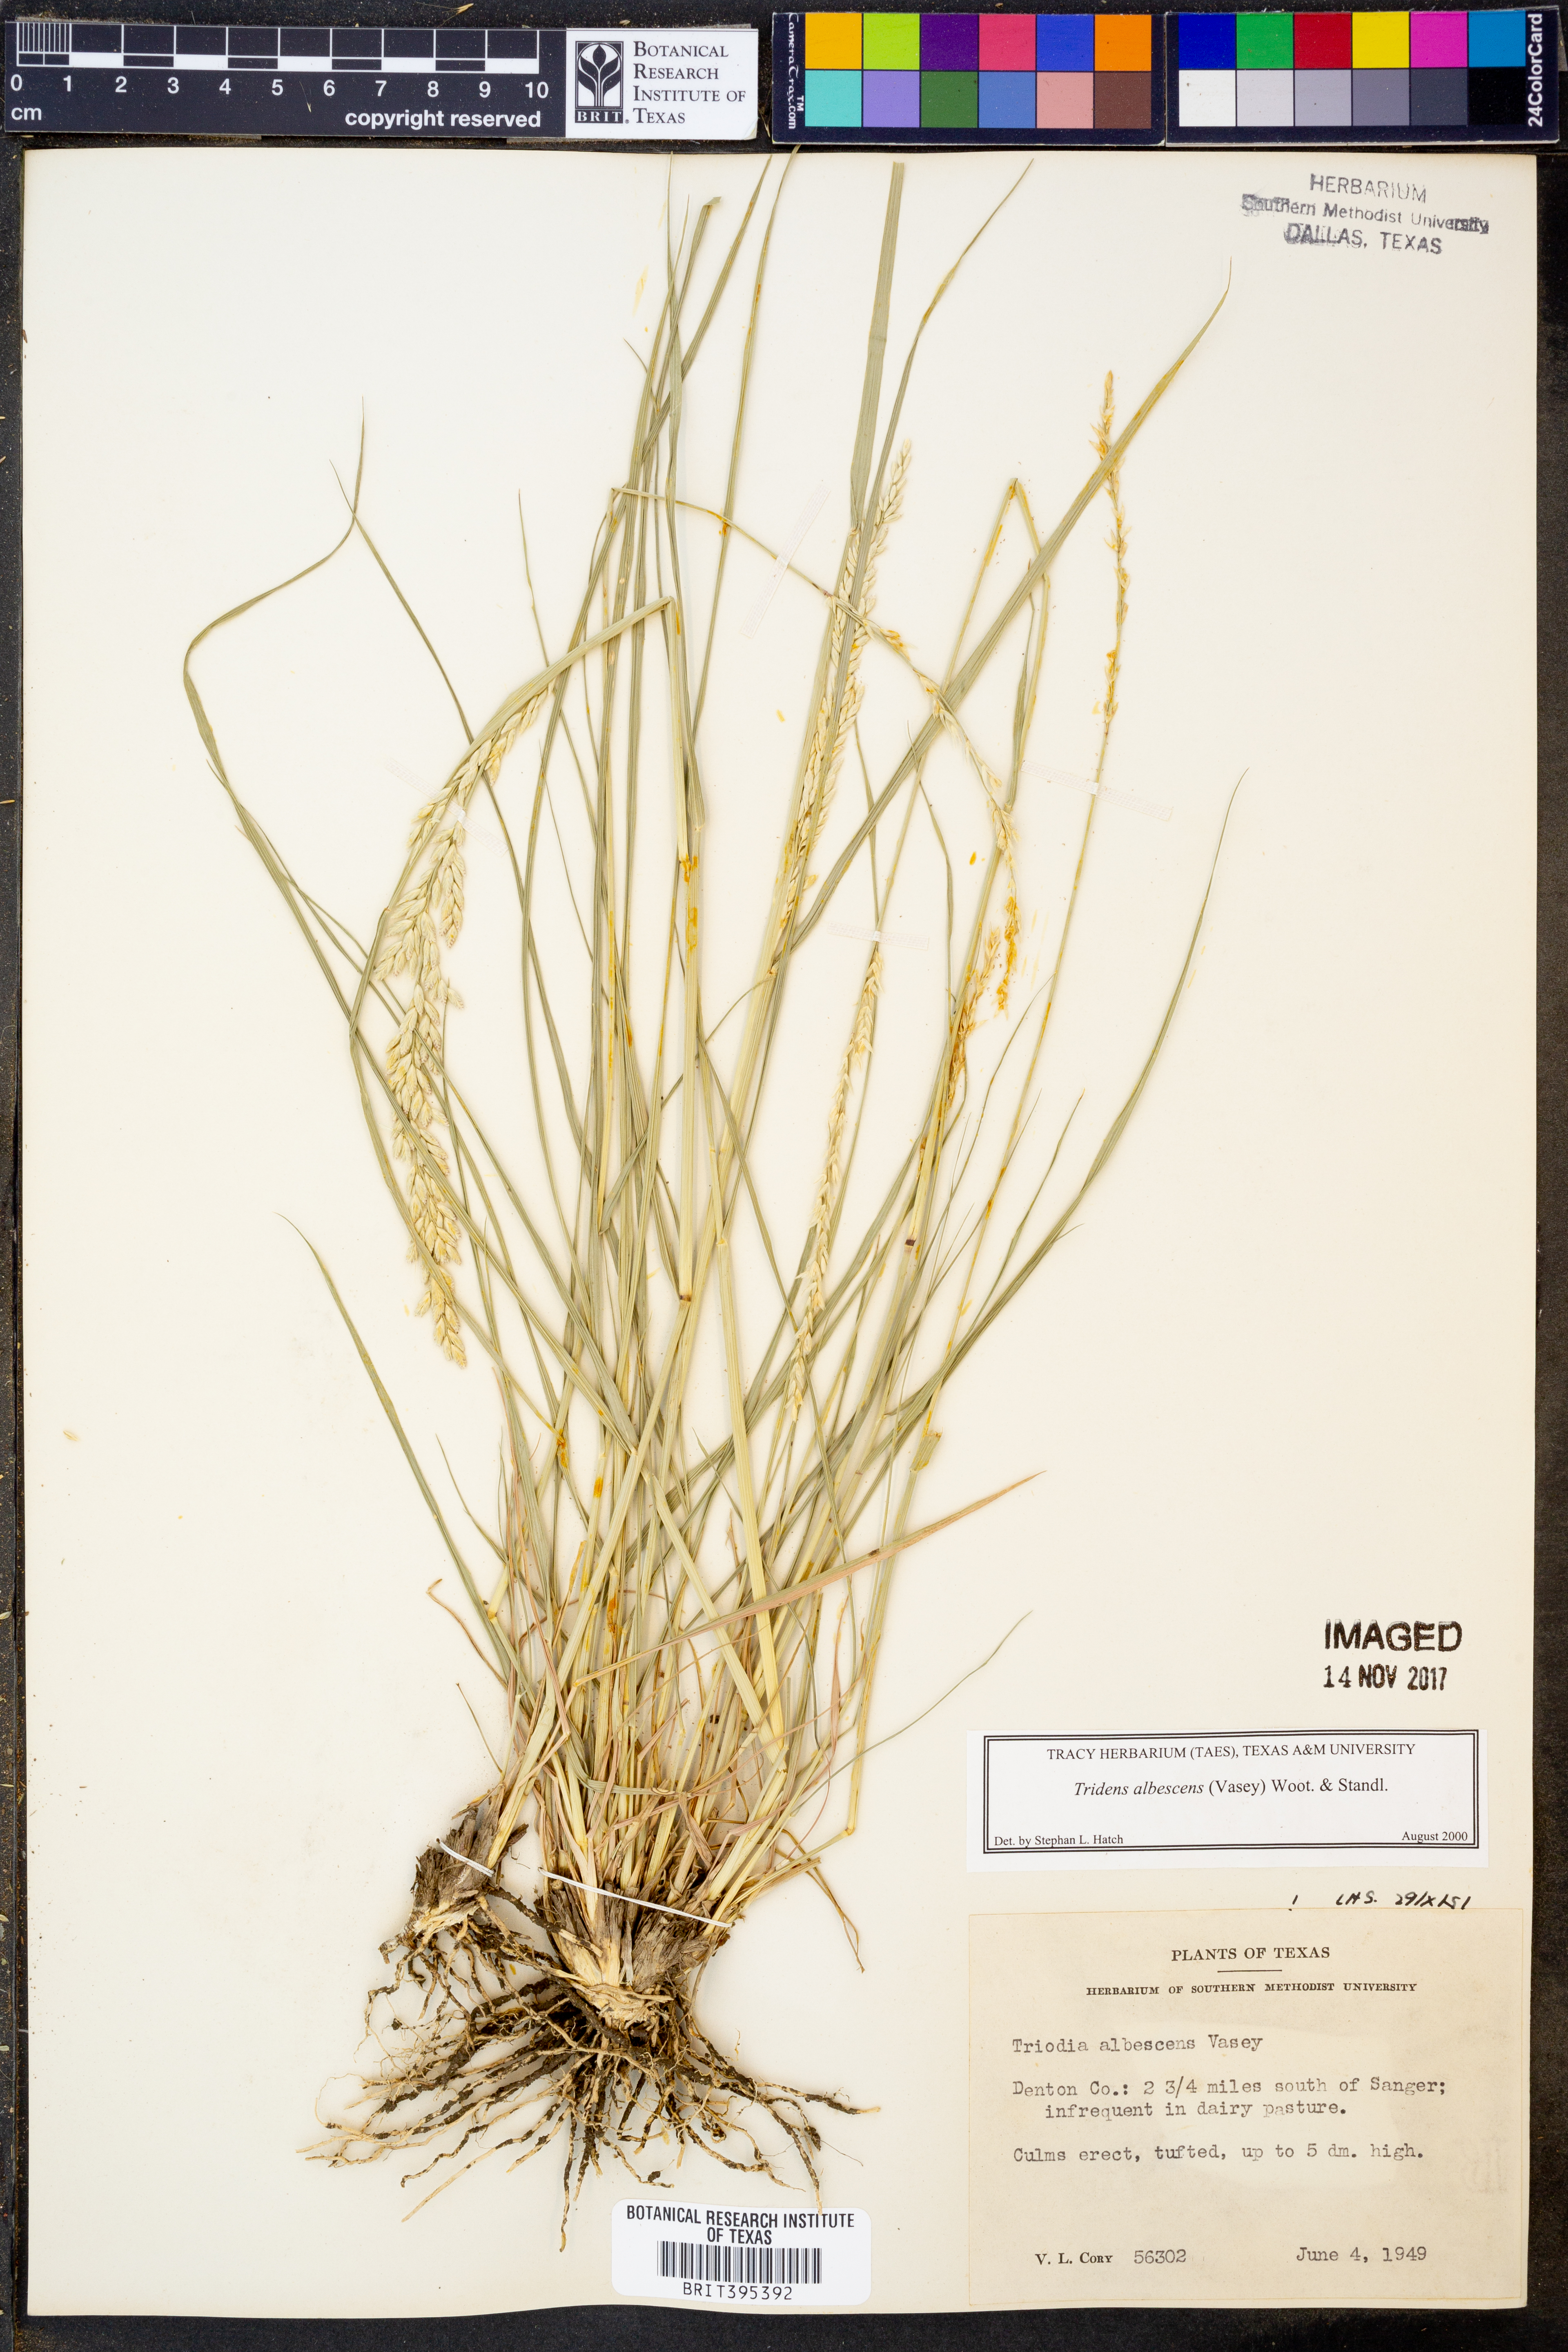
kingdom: Plantae
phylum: Tracheophyta
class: Liliopsida
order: Poales
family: Poaceae
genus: Tridens
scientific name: Tridens albescens
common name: White tridens
